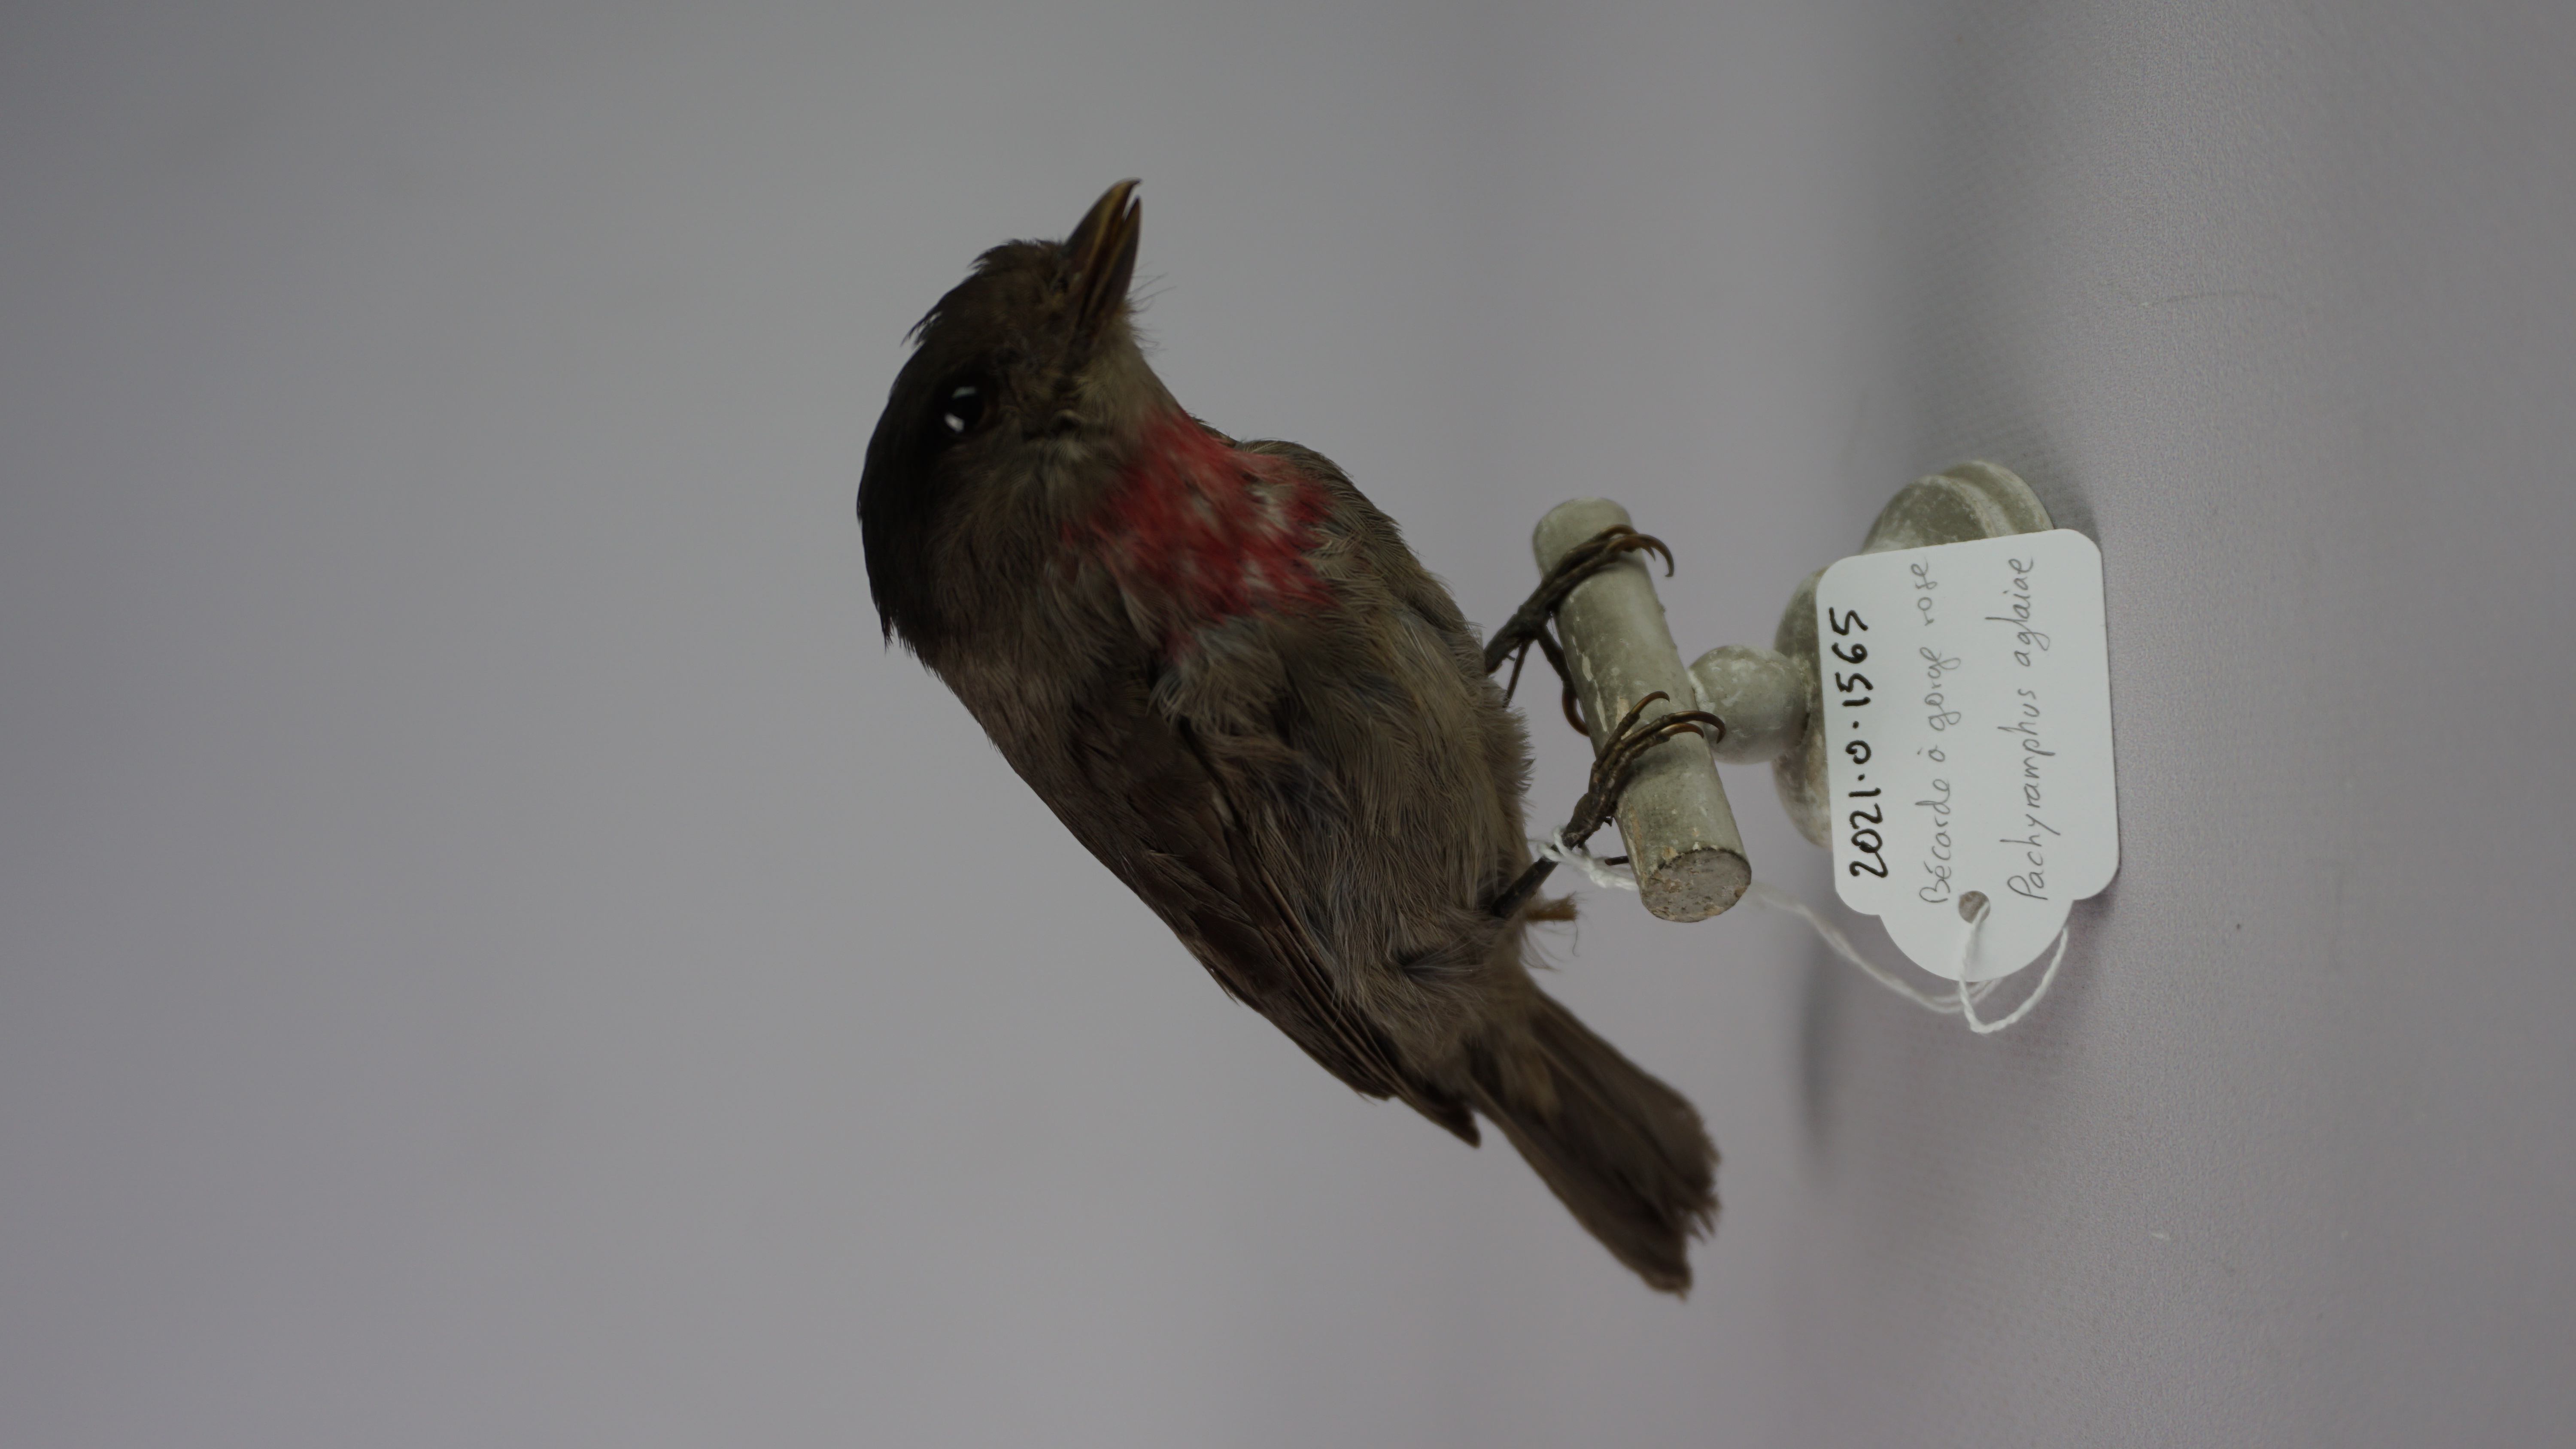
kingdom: Animalia
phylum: Chordata
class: Aves
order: Passeriformes
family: Cotingidae
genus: Pachyramphus
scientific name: Pachyramphus aglaiae
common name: Rose-throated becard
